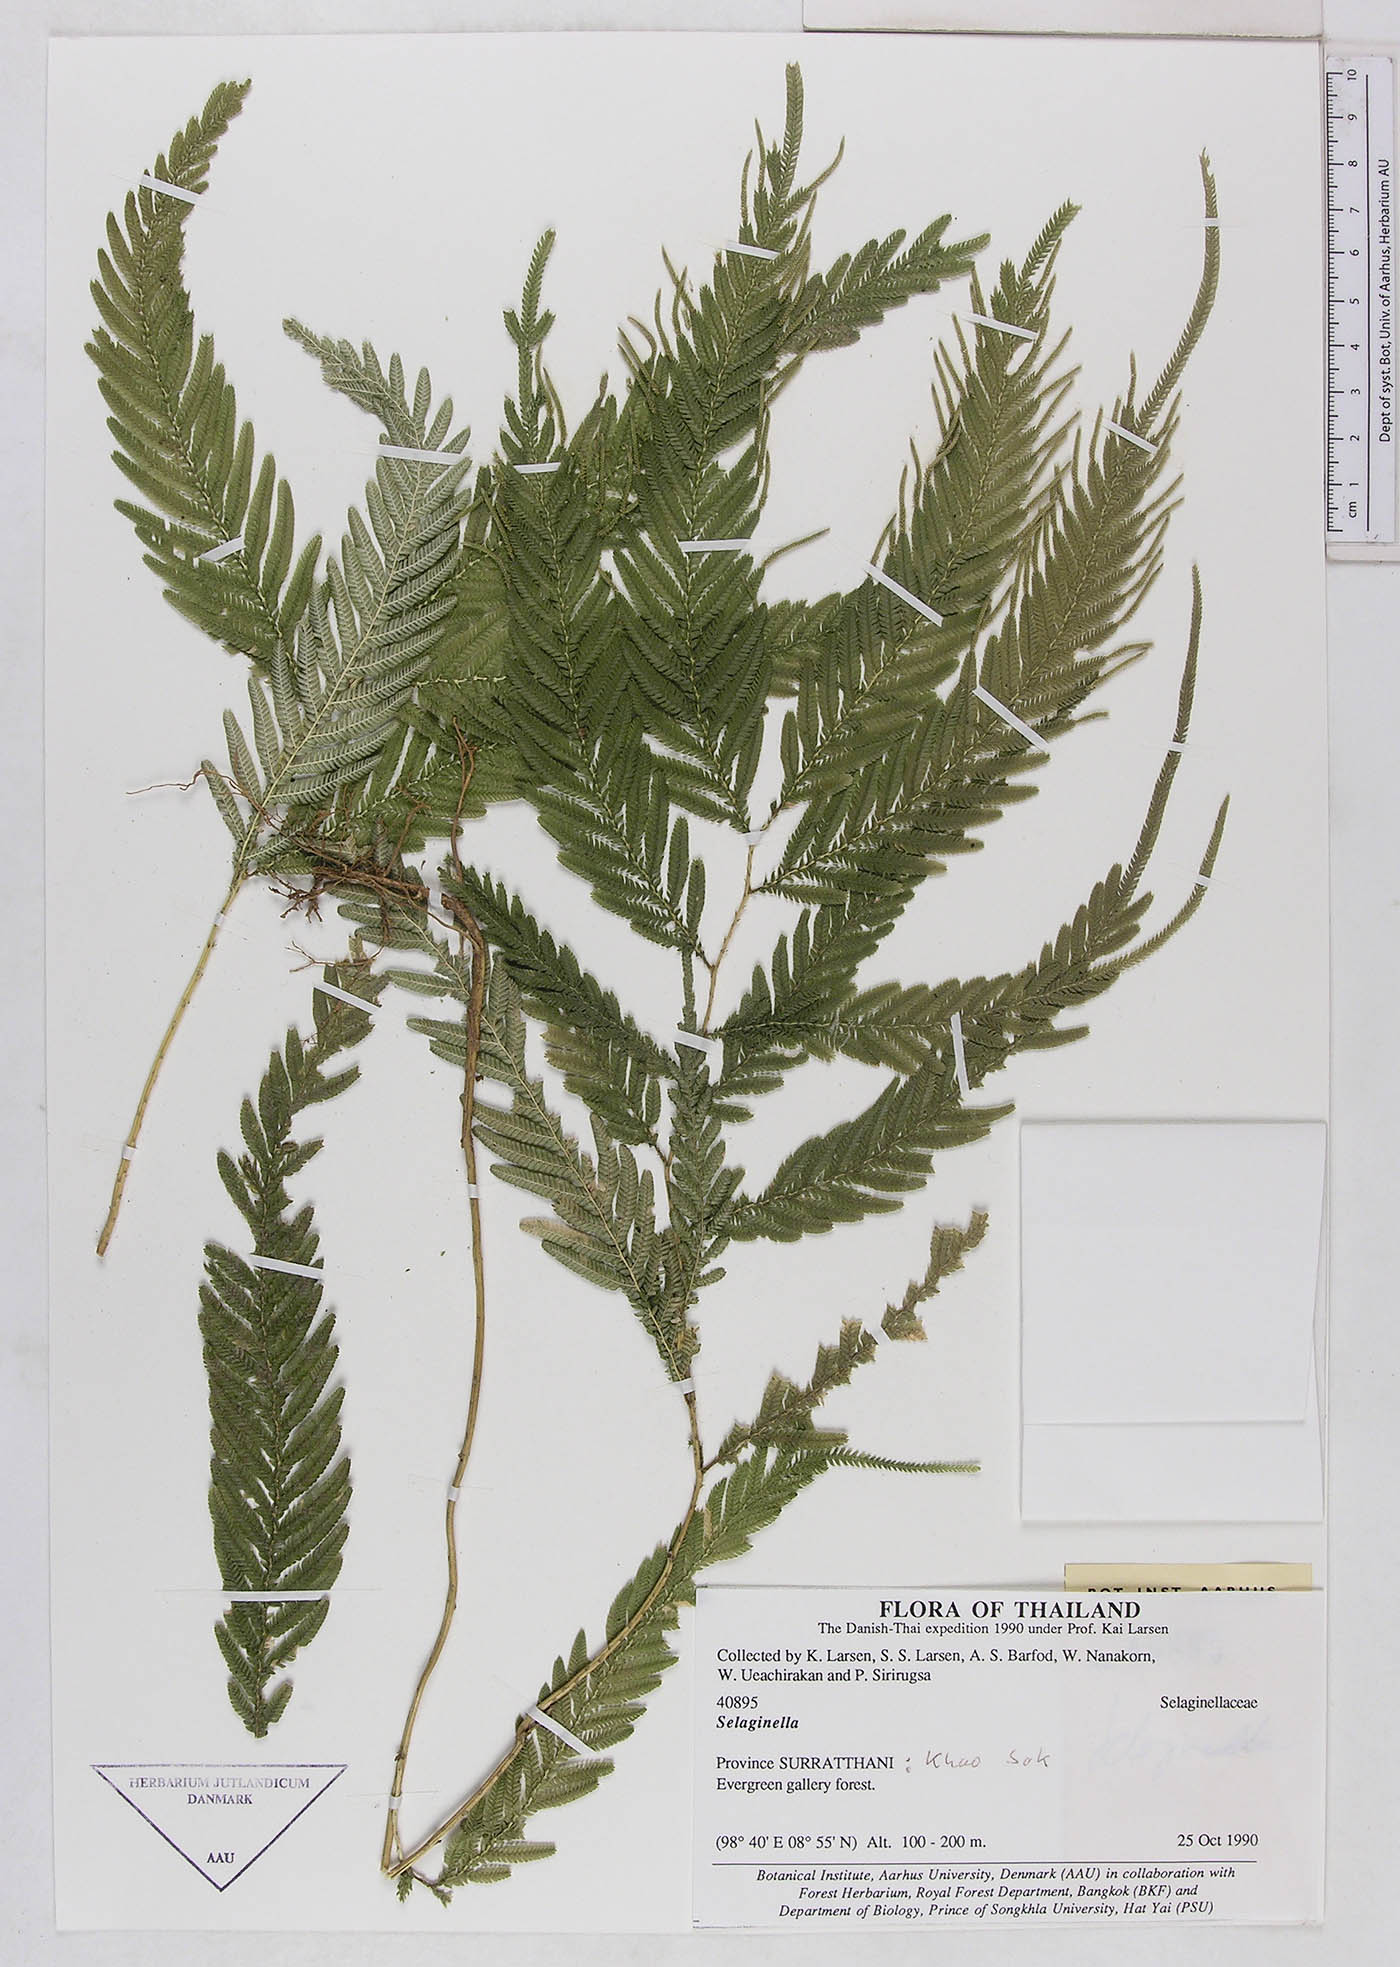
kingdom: Plantae
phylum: Tracheophyta
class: Lycopodiopsida
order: Selaginellales
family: Selaginellaceae
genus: Selaginella
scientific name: Selaginella
